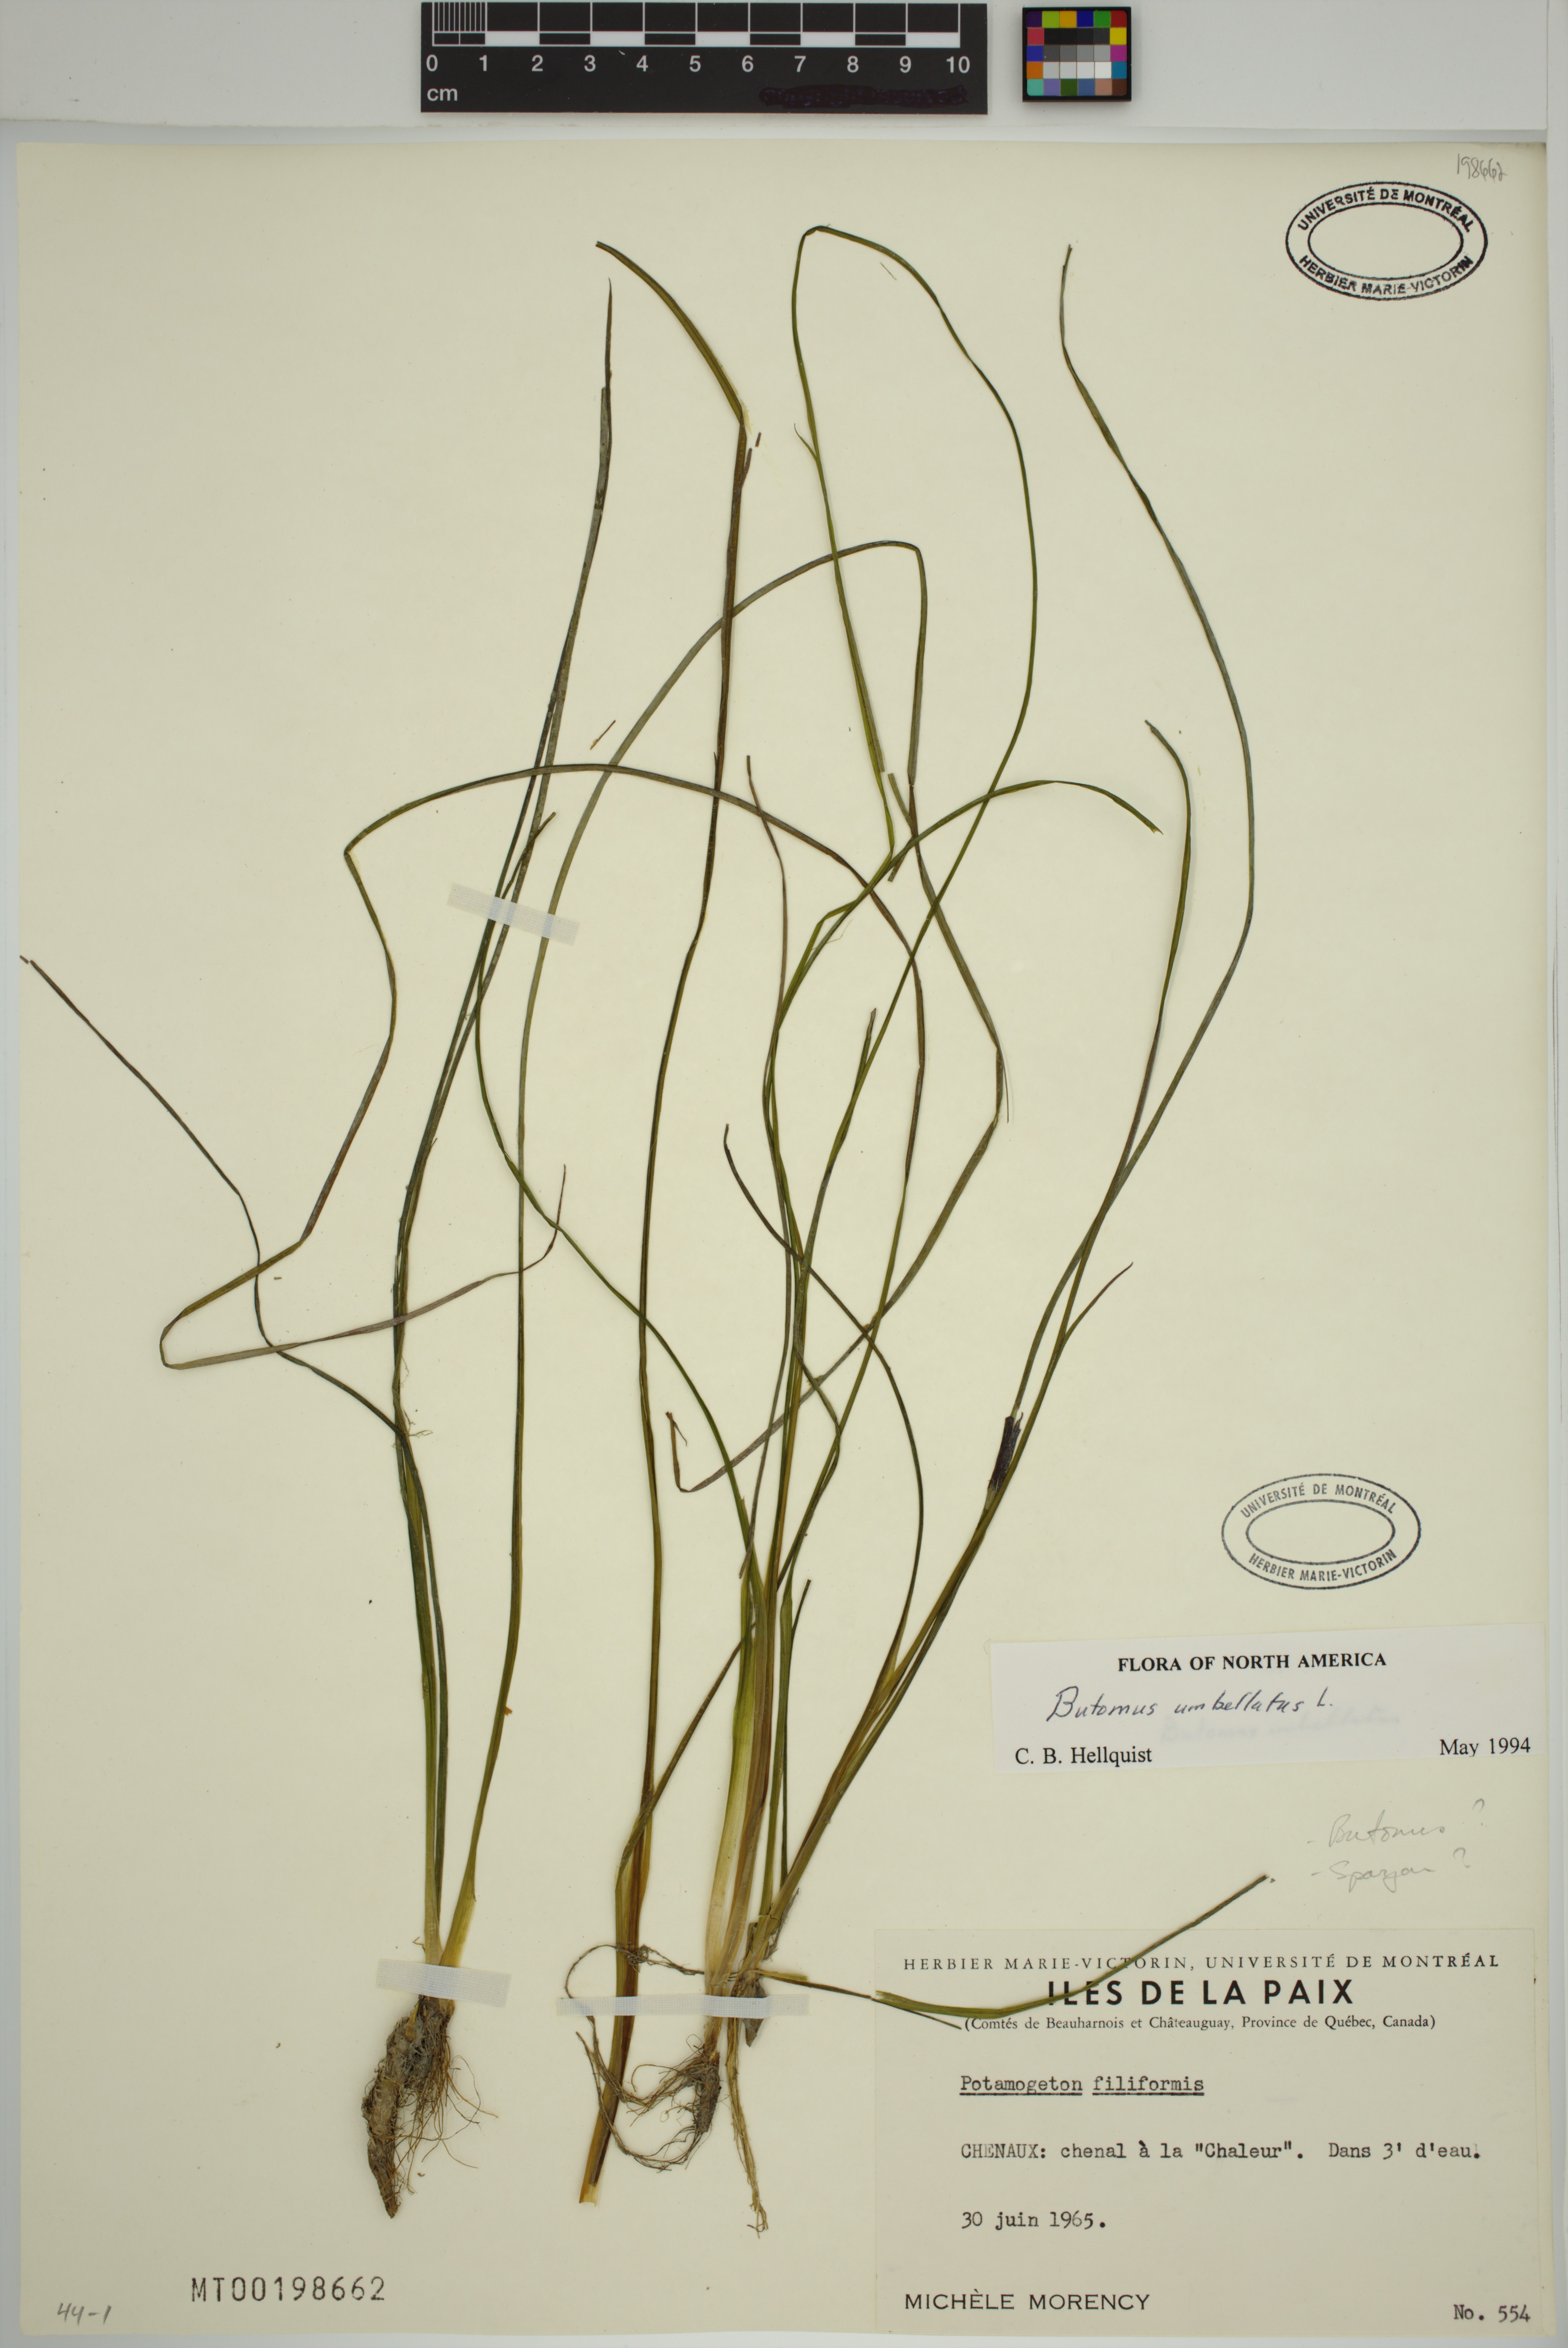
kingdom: Plantae
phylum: Tracheophyta
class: Liliopsida
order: Alismatales
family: Butomaceae
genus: Butomus
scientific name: Butomus umbellatus
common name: Flowering-rush
